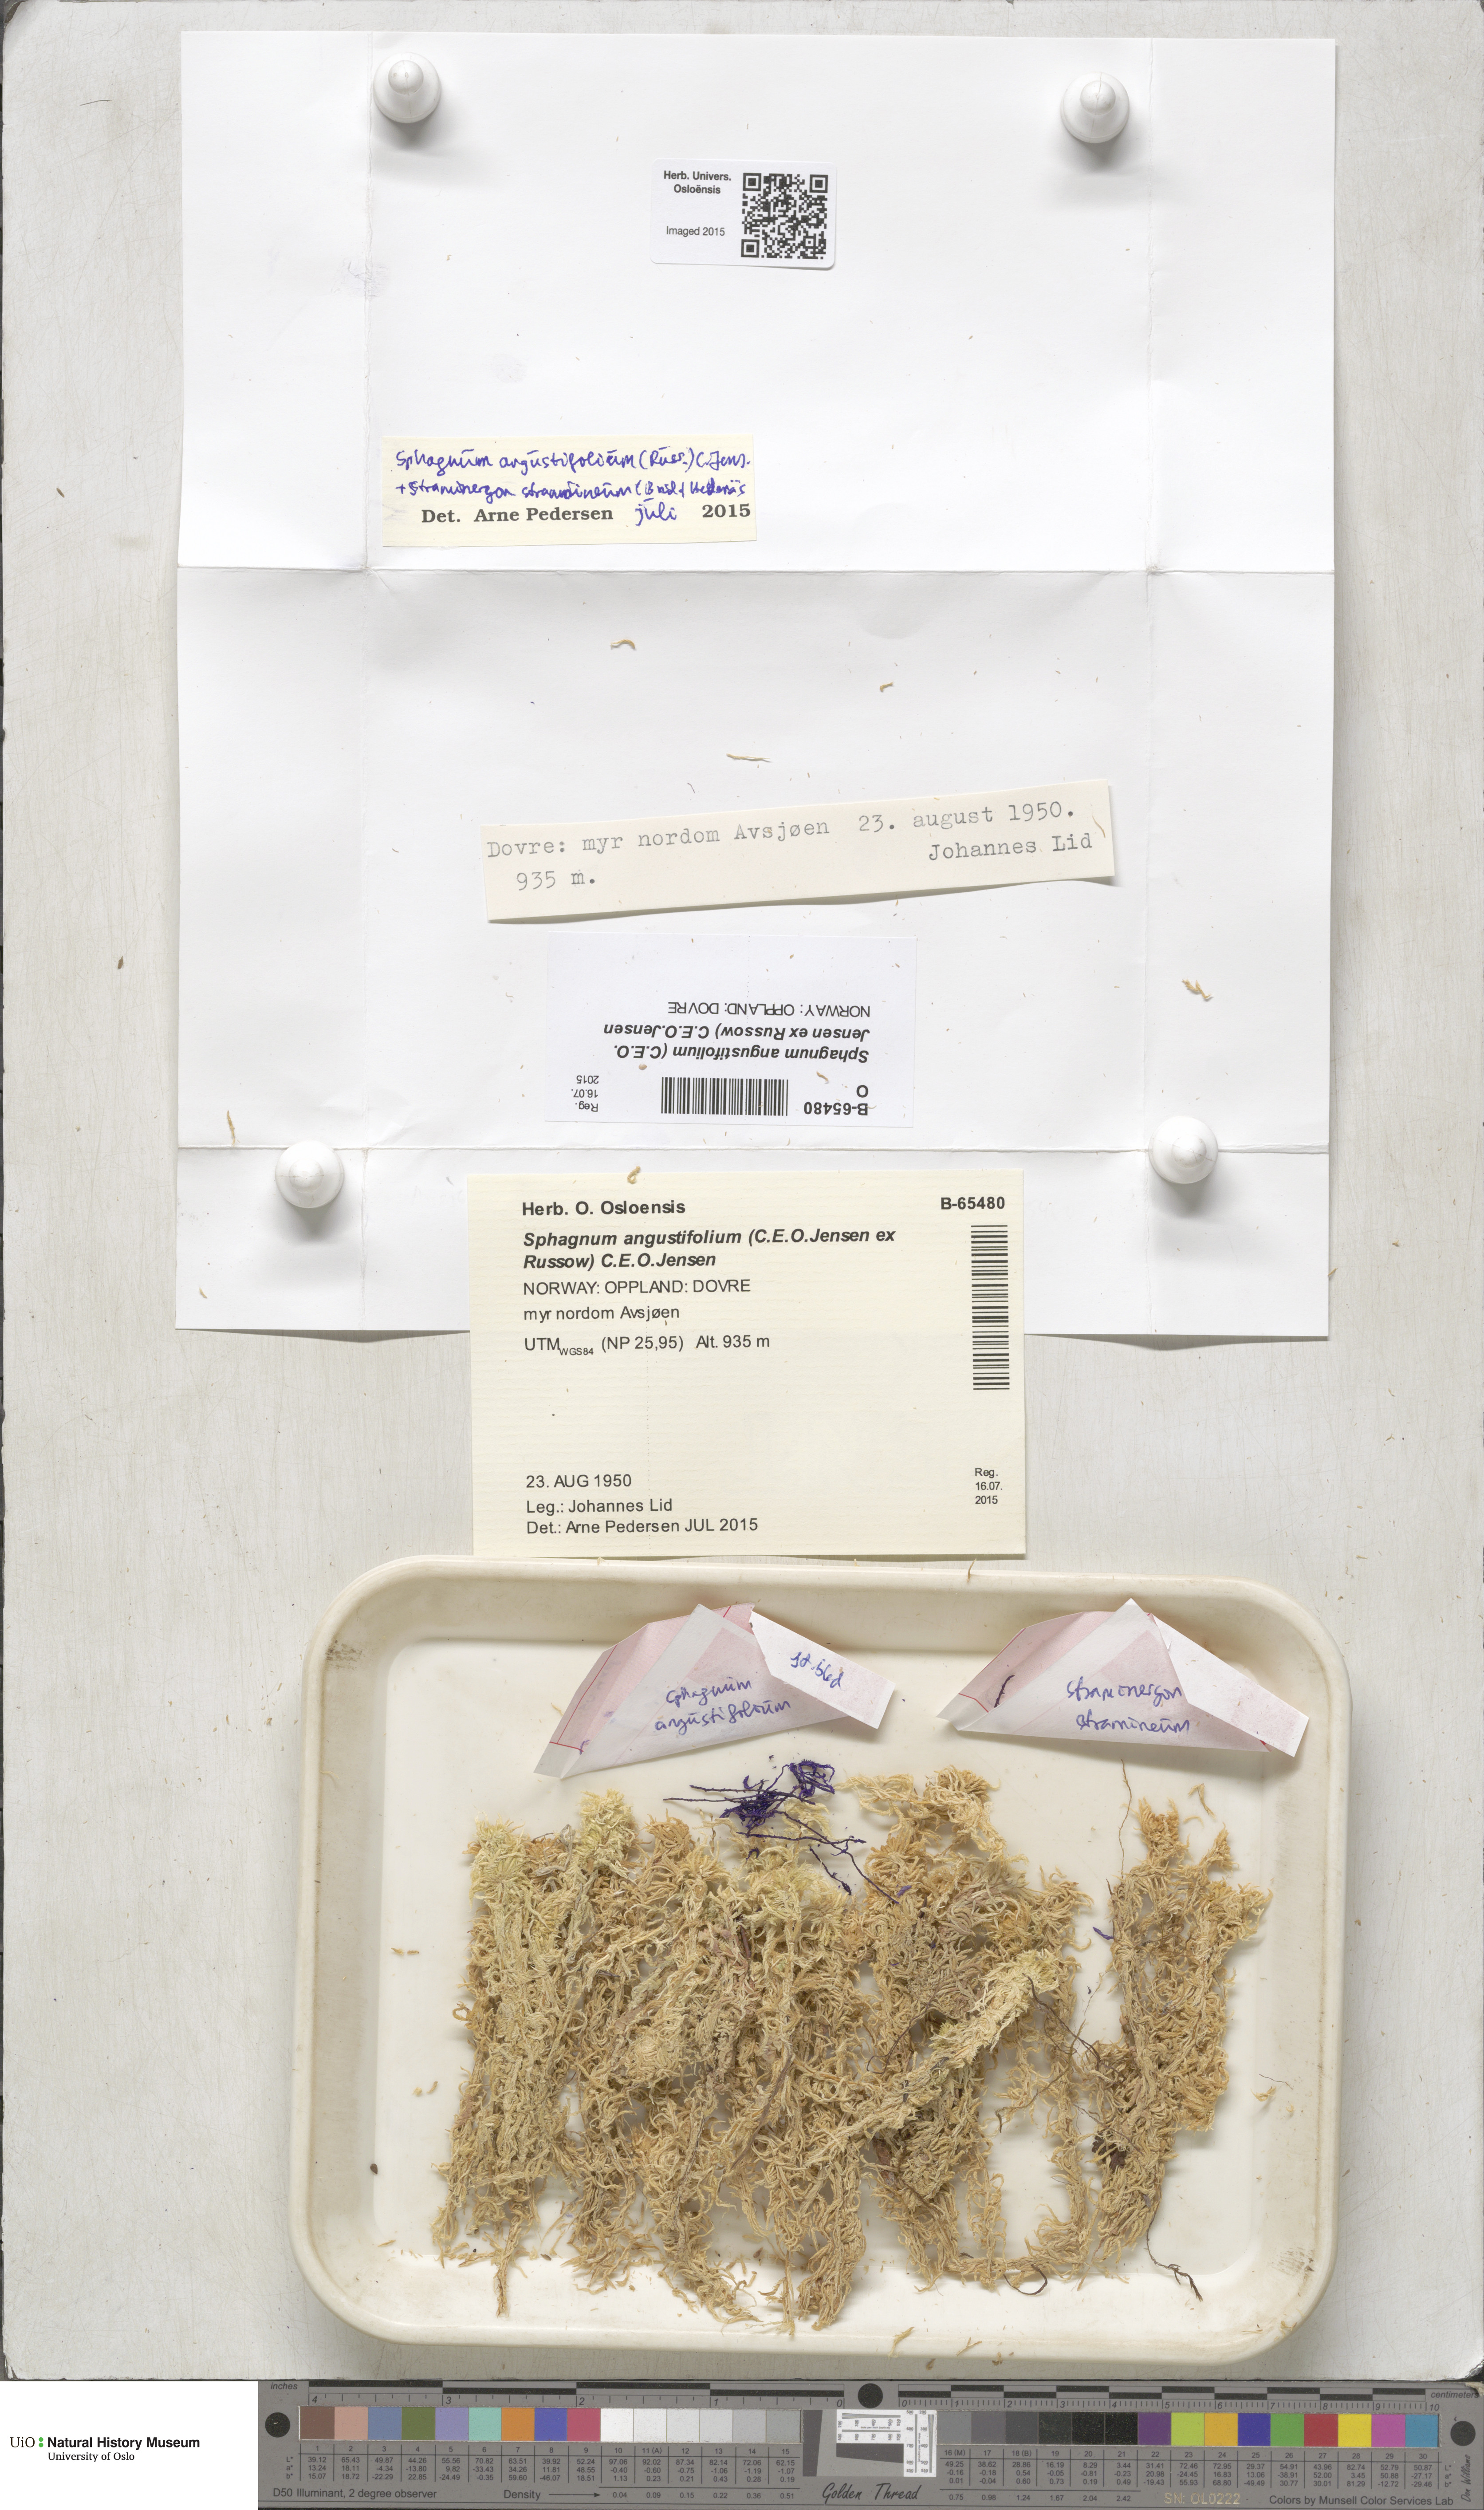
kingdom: Plantae
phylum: Bryophyta
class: Sphagnopsida
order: Sphagnales
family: Sphagnaceae
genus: Sphagnum
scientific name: Sphagnum angustifolium
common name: Narrow-leaved peat moss
